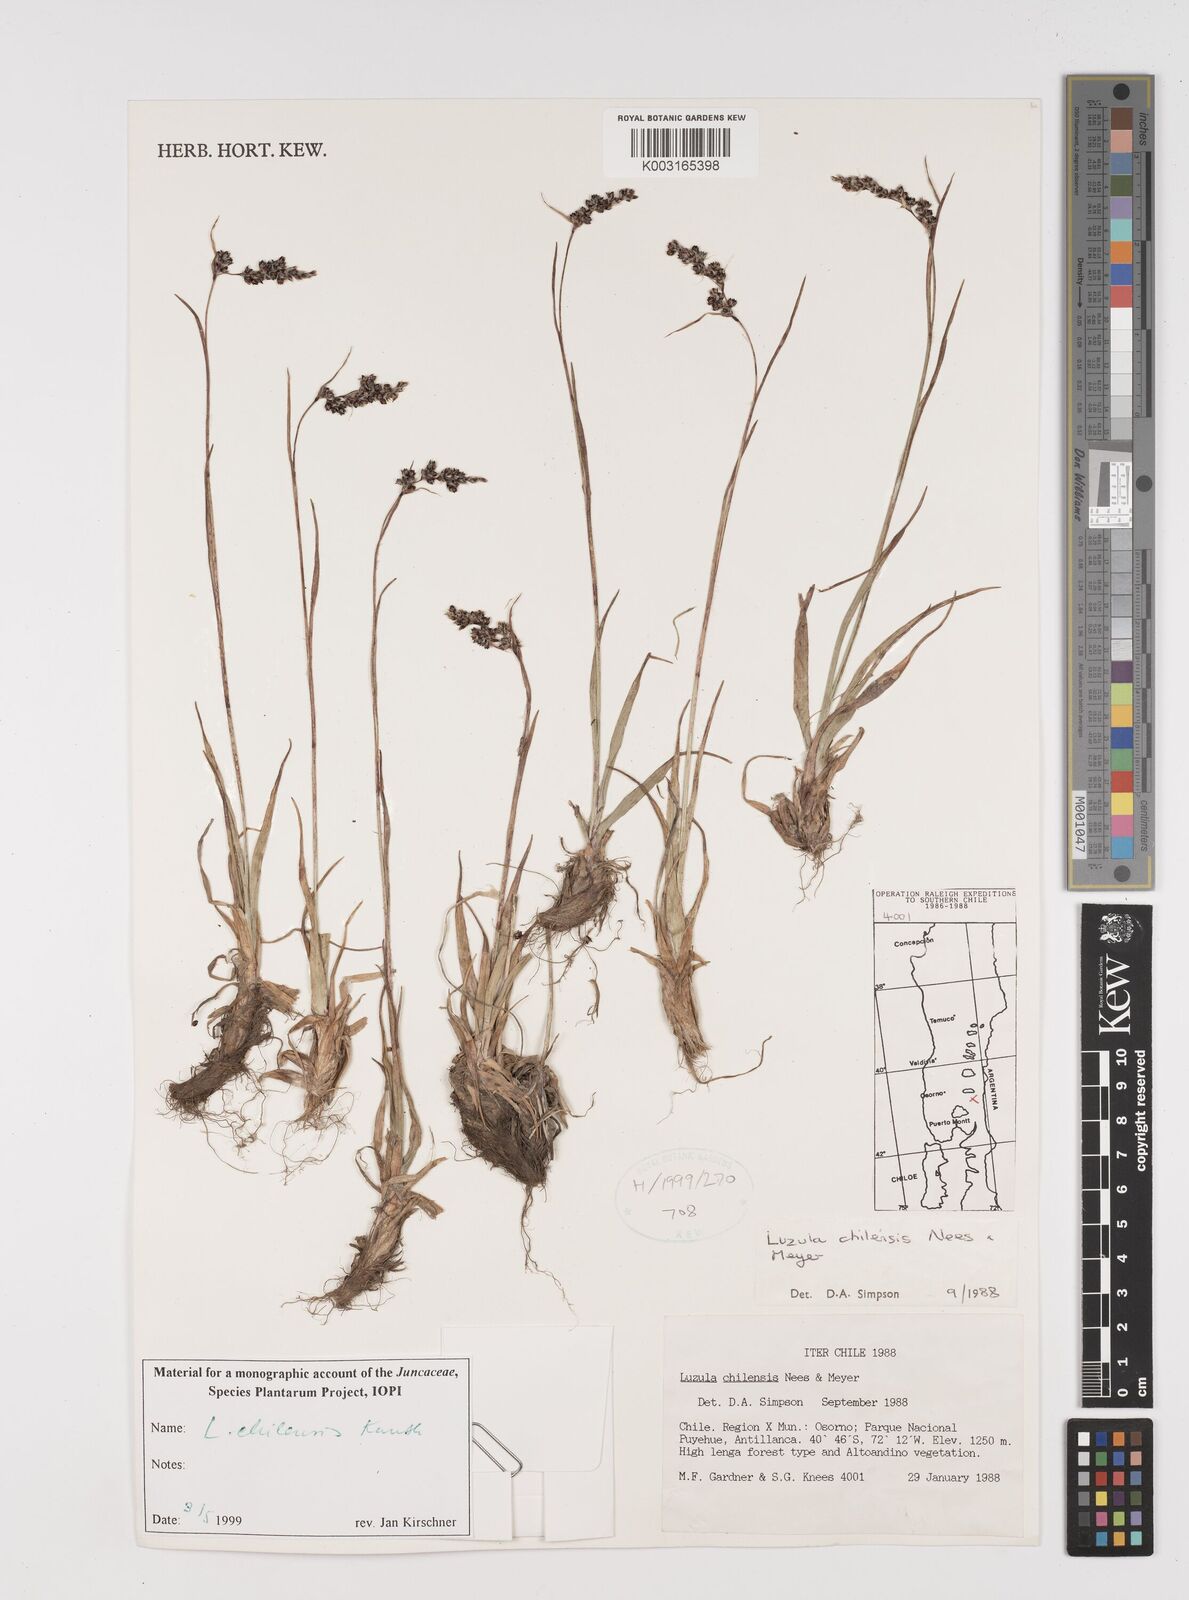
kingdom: Plantae
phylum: Tracheophyta
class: Liliopsida
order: Poales
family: Juncaceae
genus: Luzula
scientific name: Luzula chilensis
